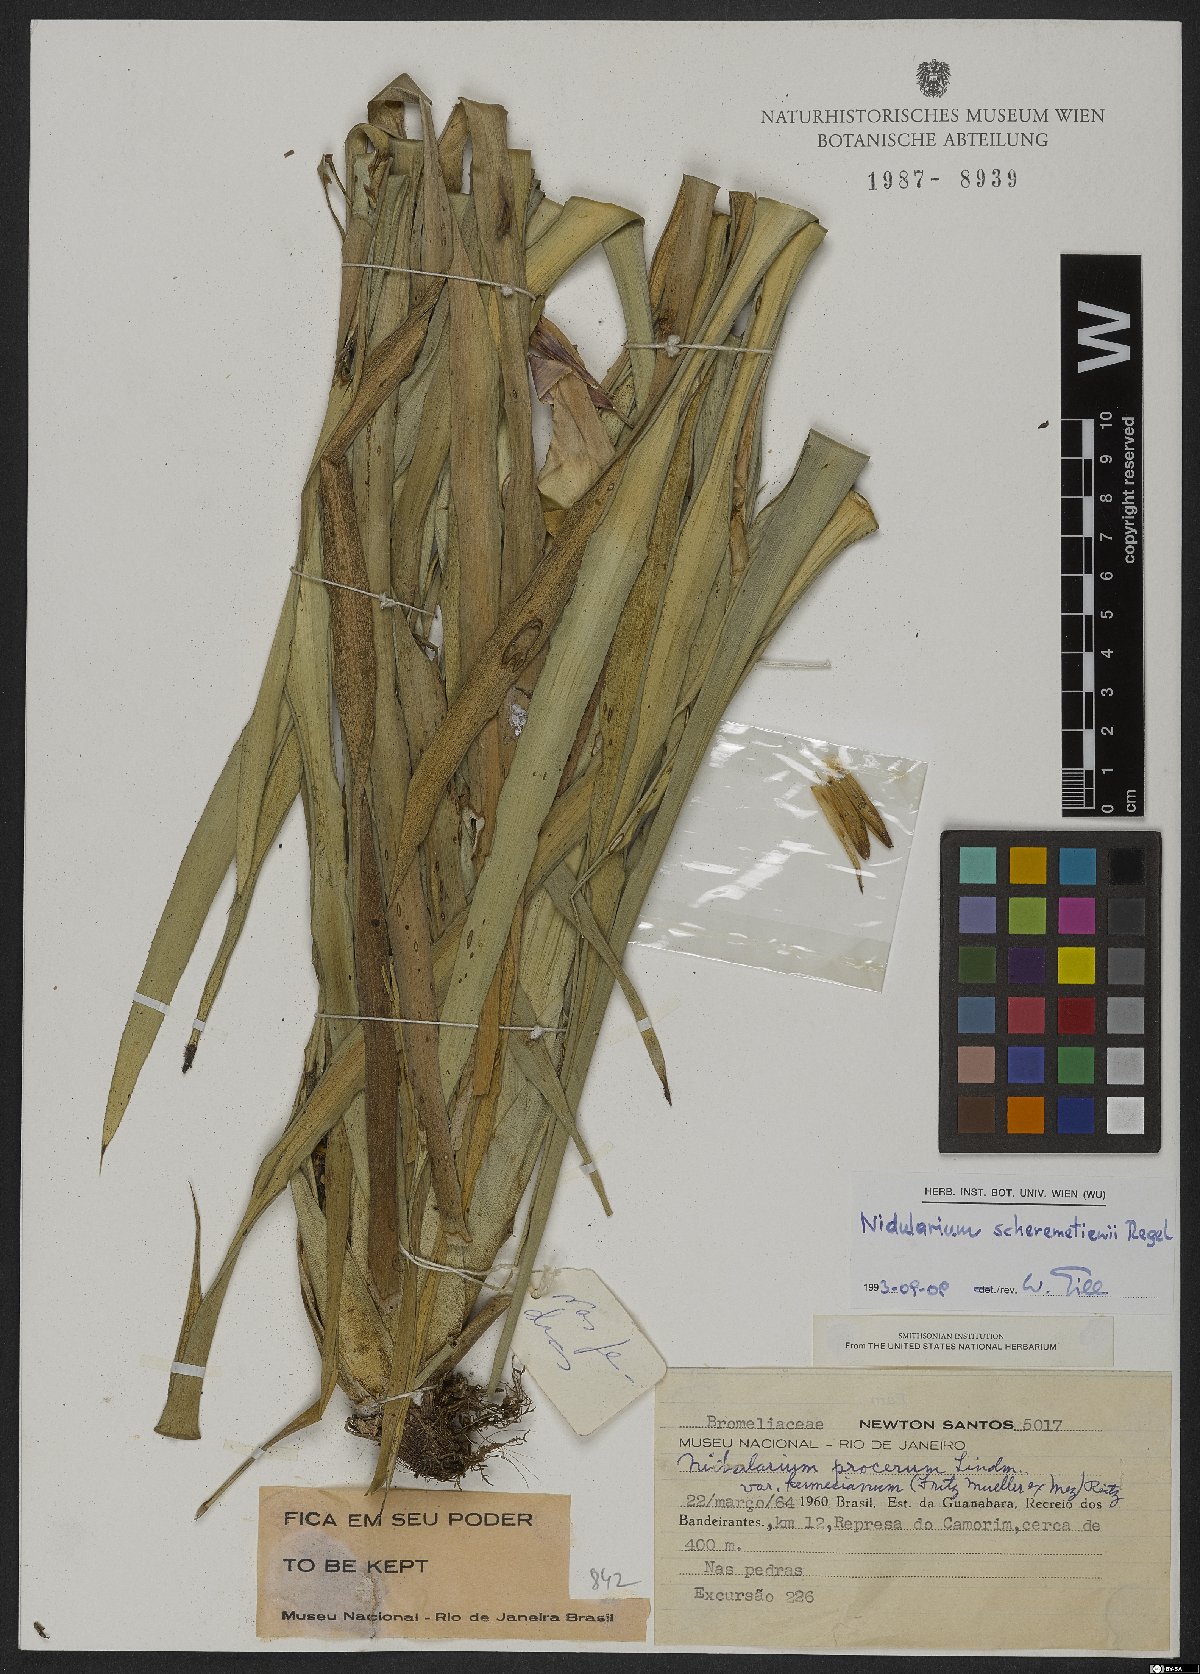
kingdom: Plantae
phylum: Tracheophyta
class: Liliopsida
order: Poales
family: Bromeliaceae
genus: Nidularium
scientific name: Nidularium scheremetiewii
